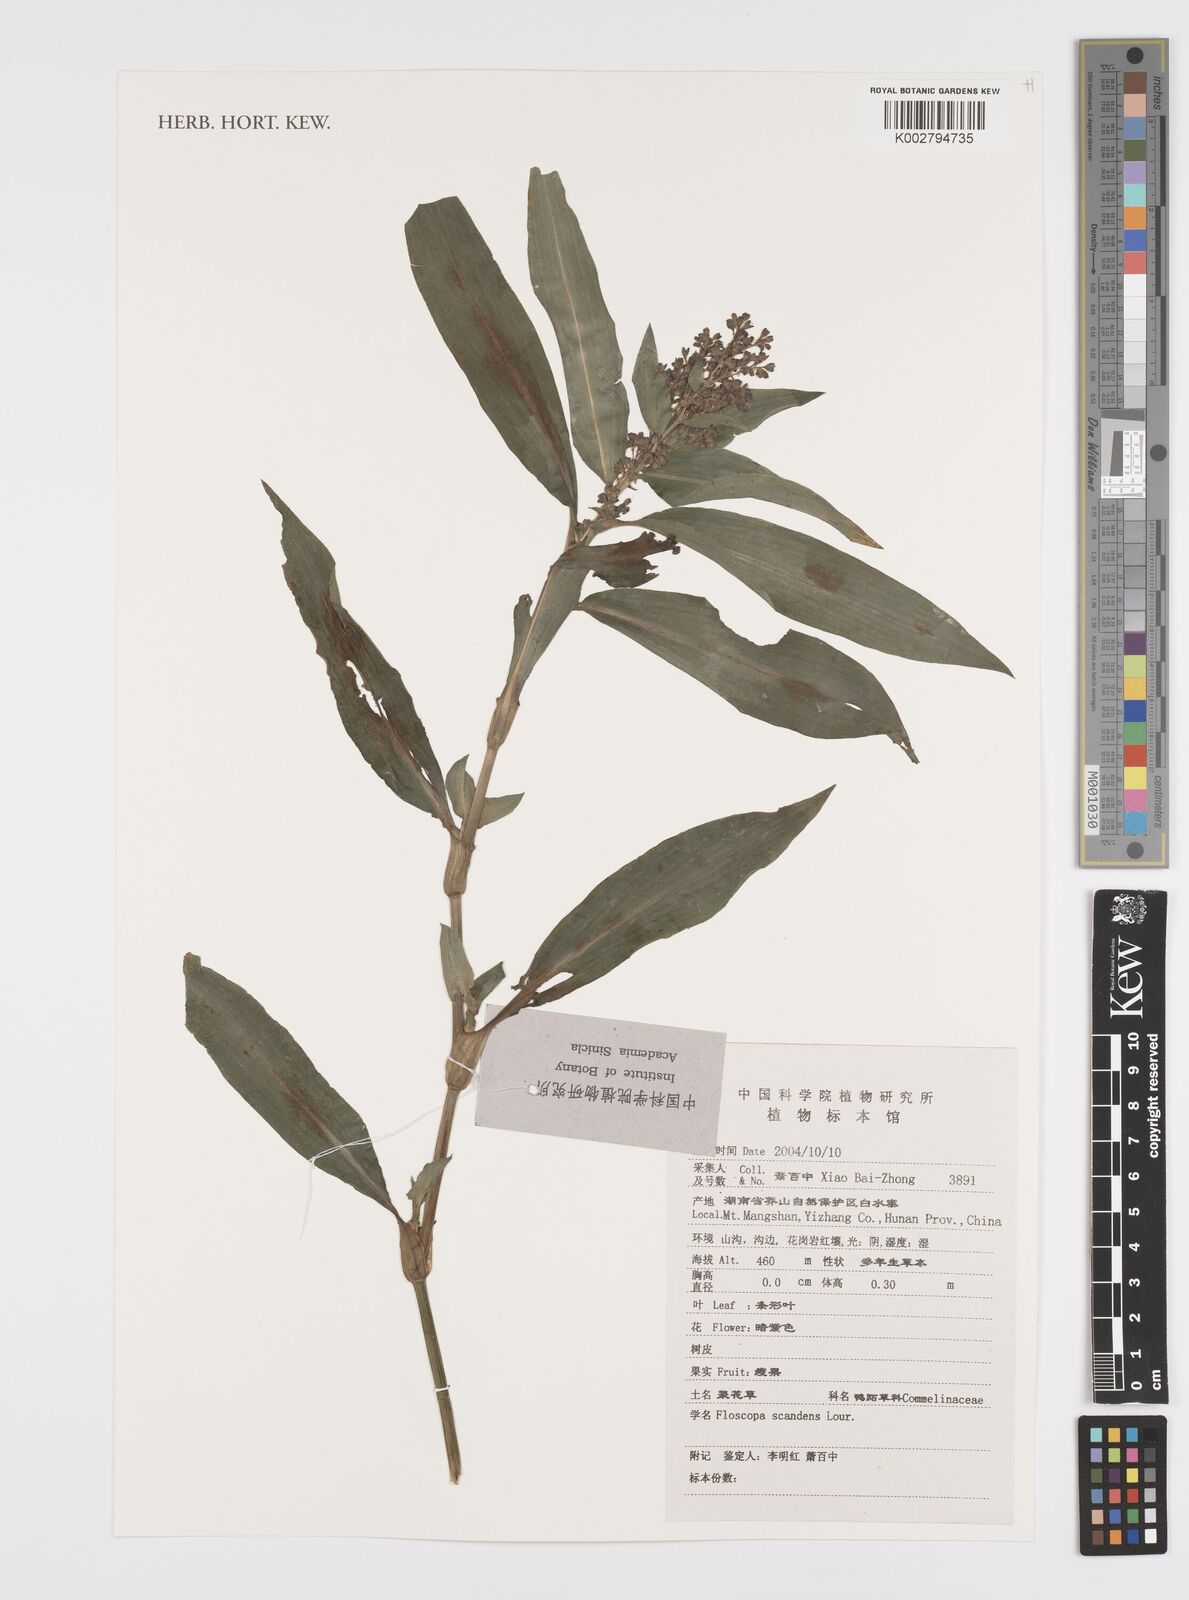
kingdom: Plantae
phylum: Tracheophyta
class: Liliopsida
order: Commelinales
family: Commelinaceae
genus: Floscopa
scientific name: Floscopa scandens
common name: Climbing flower cup
